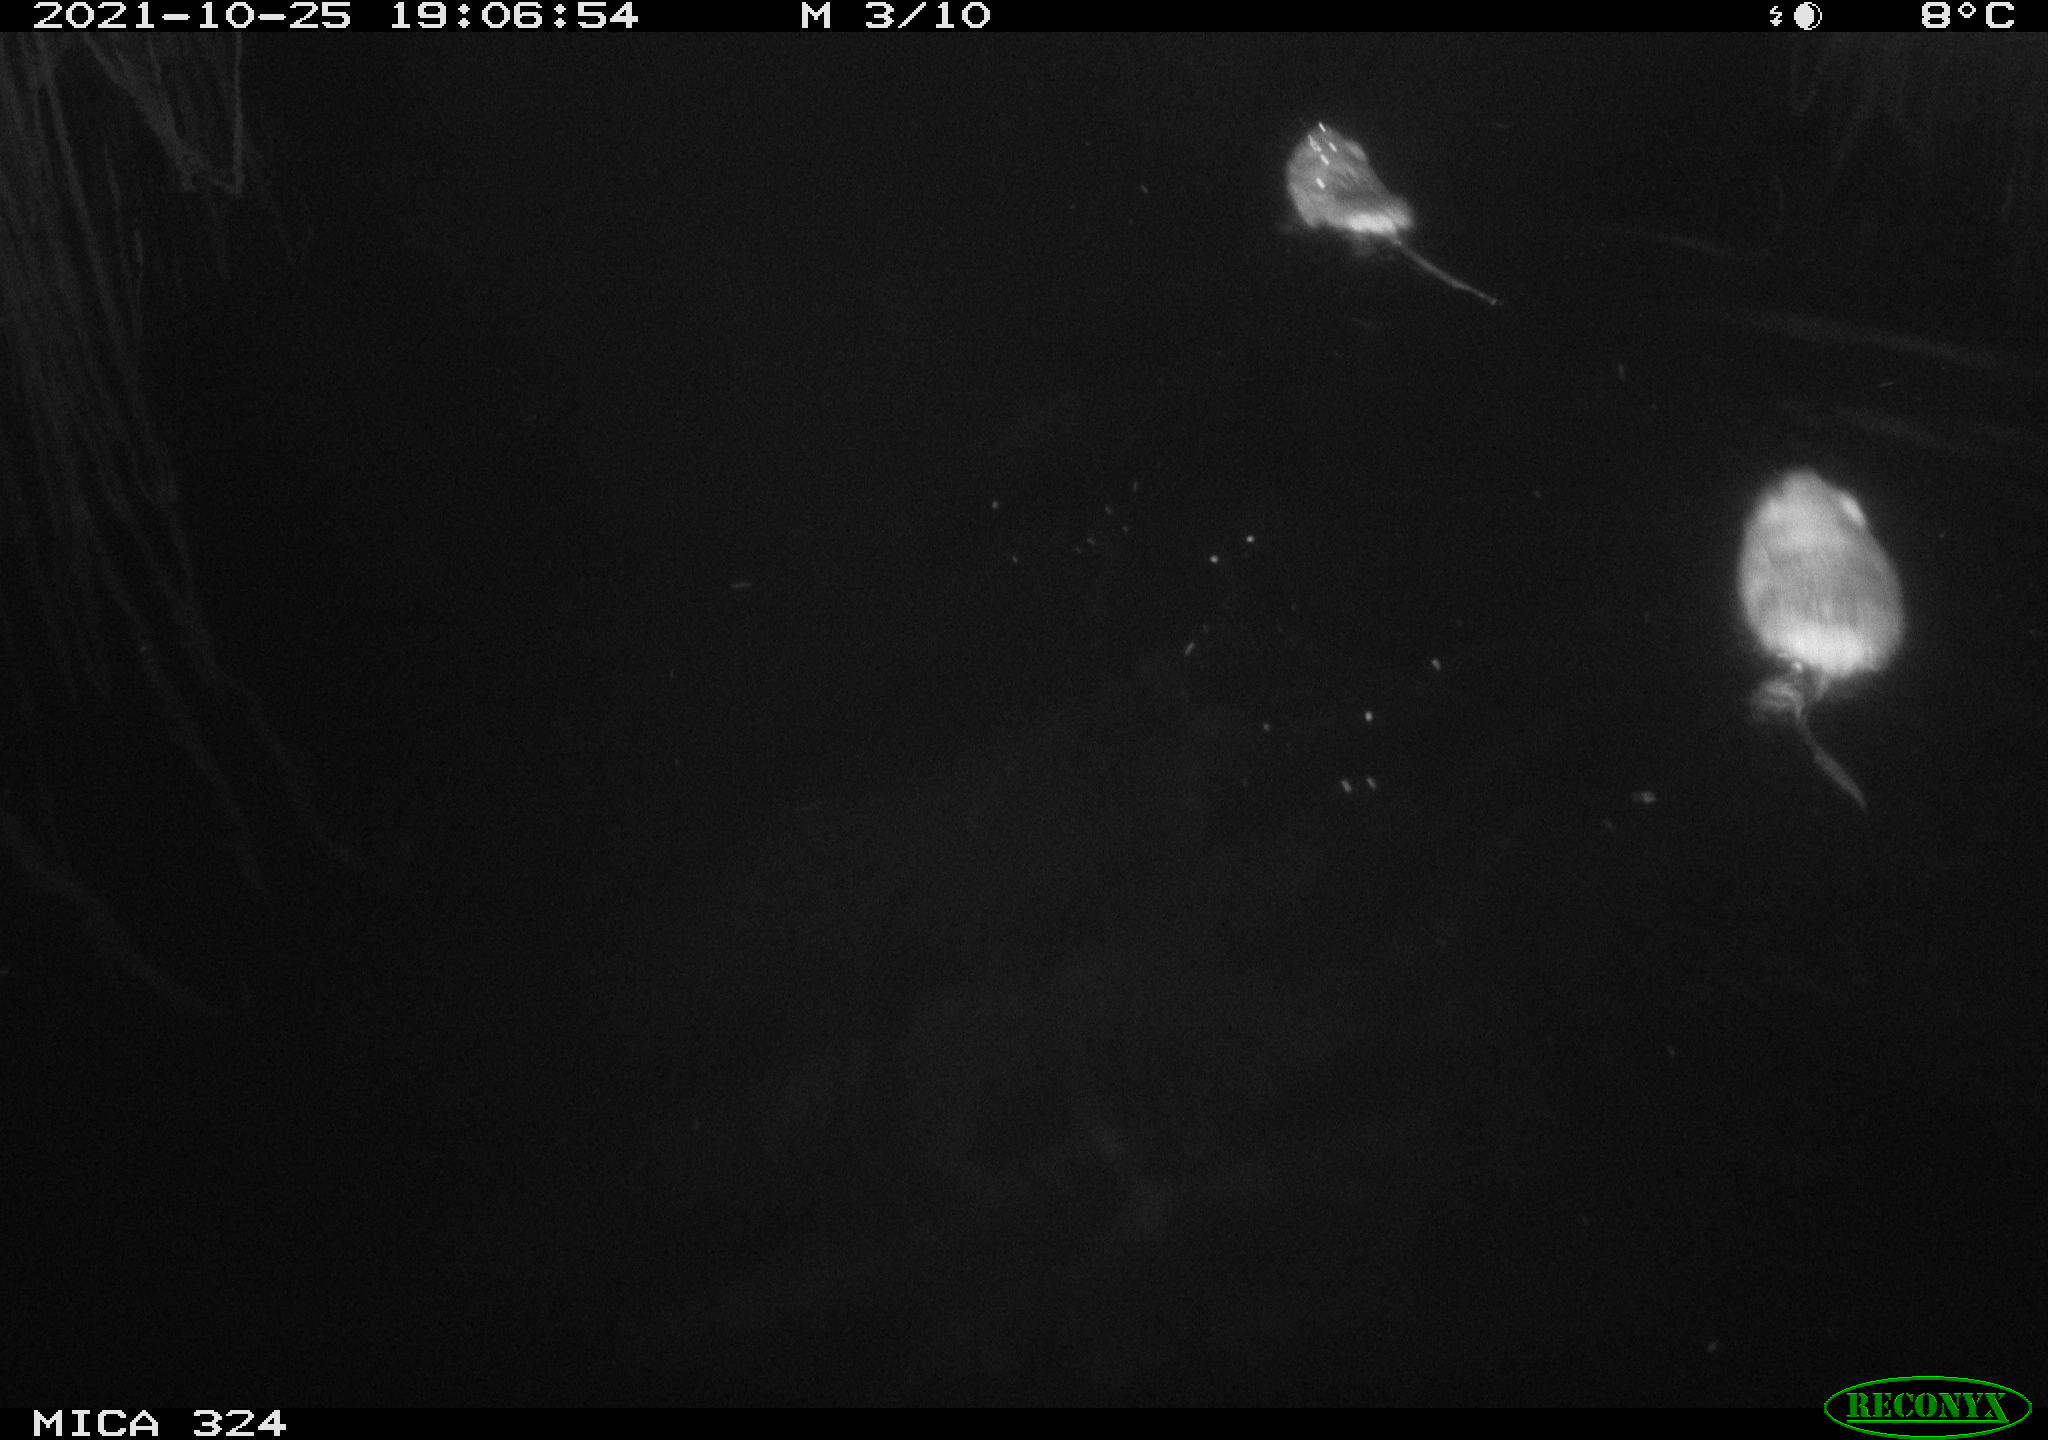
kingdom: Animalia
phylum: Chordata
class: Mammalia
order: Rodentia
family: Cricetidae
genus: Ondatra
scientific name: Ondatra zibethicus
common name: Muskrat
